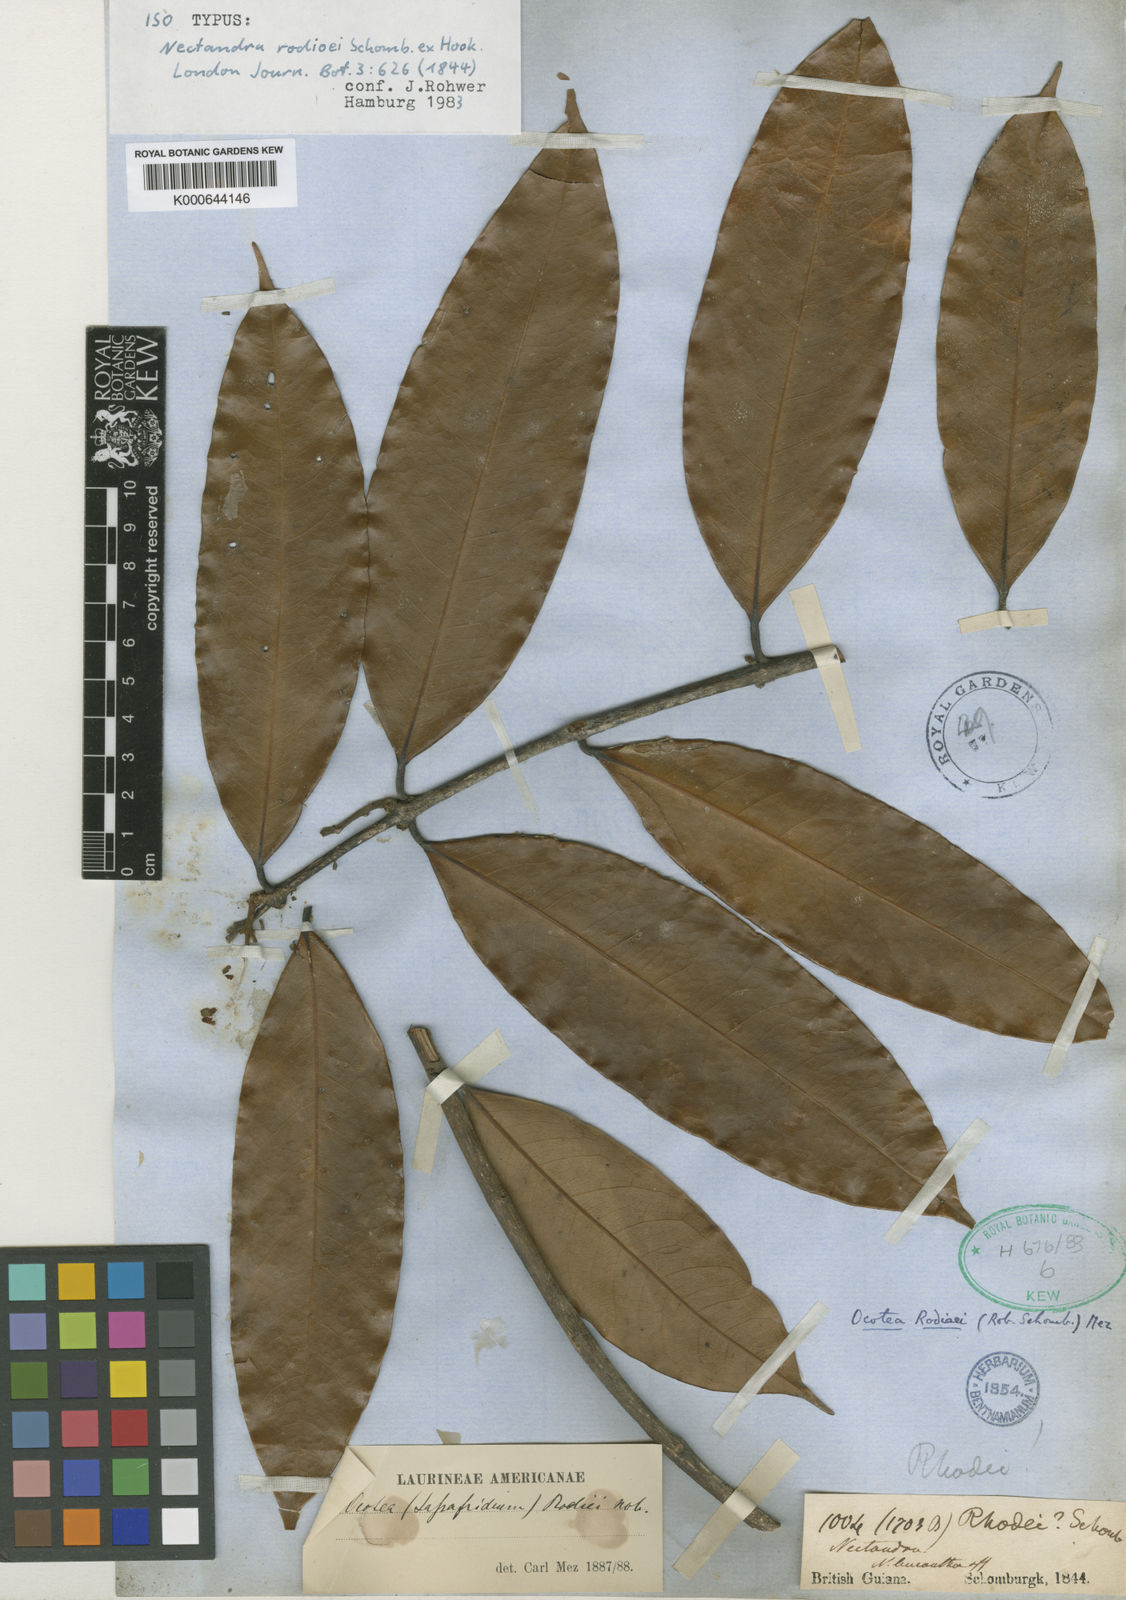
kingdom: Plantae
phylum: Tracheophyta
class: Magnoliopsida
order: Laurales
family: Lauraceae
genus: Chlorocardium
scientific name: Chlorocardium rodiei
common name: Cogwood
